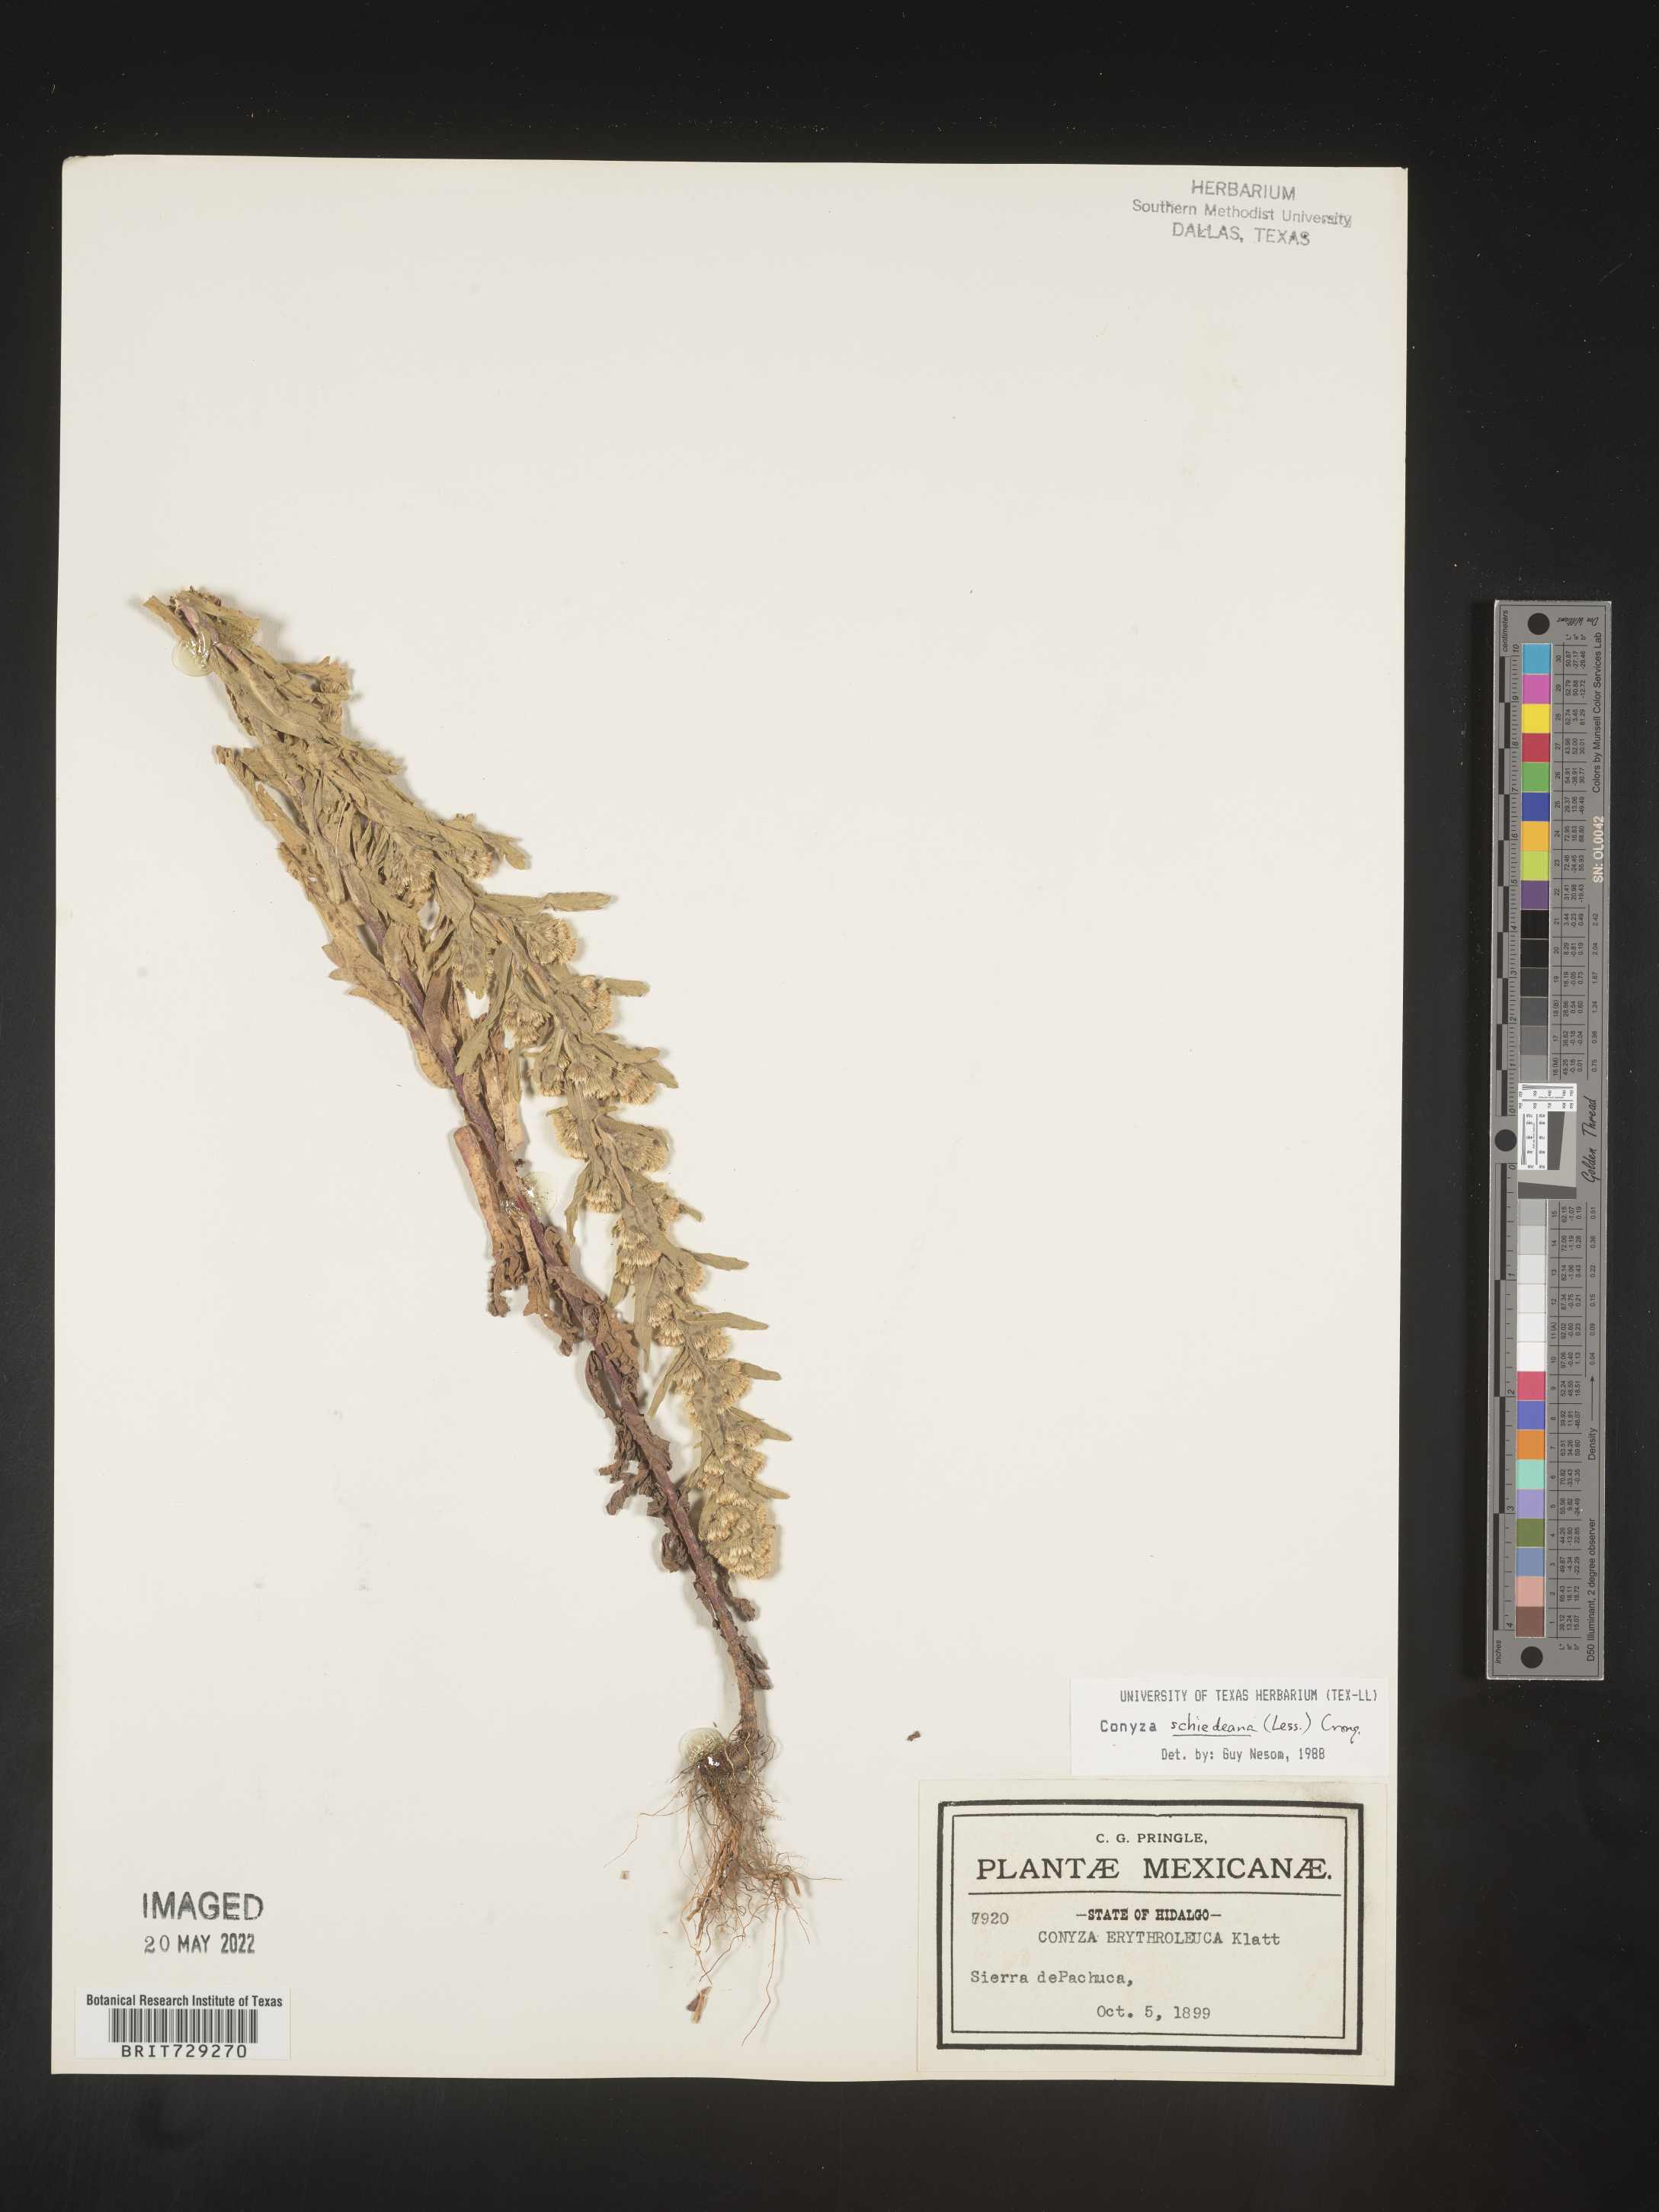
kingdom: Plantae
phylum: Tracheophyta
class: Magnoliopsida
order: Asterales
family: Asteraceae
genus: Laennecia
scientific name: Laennecia
